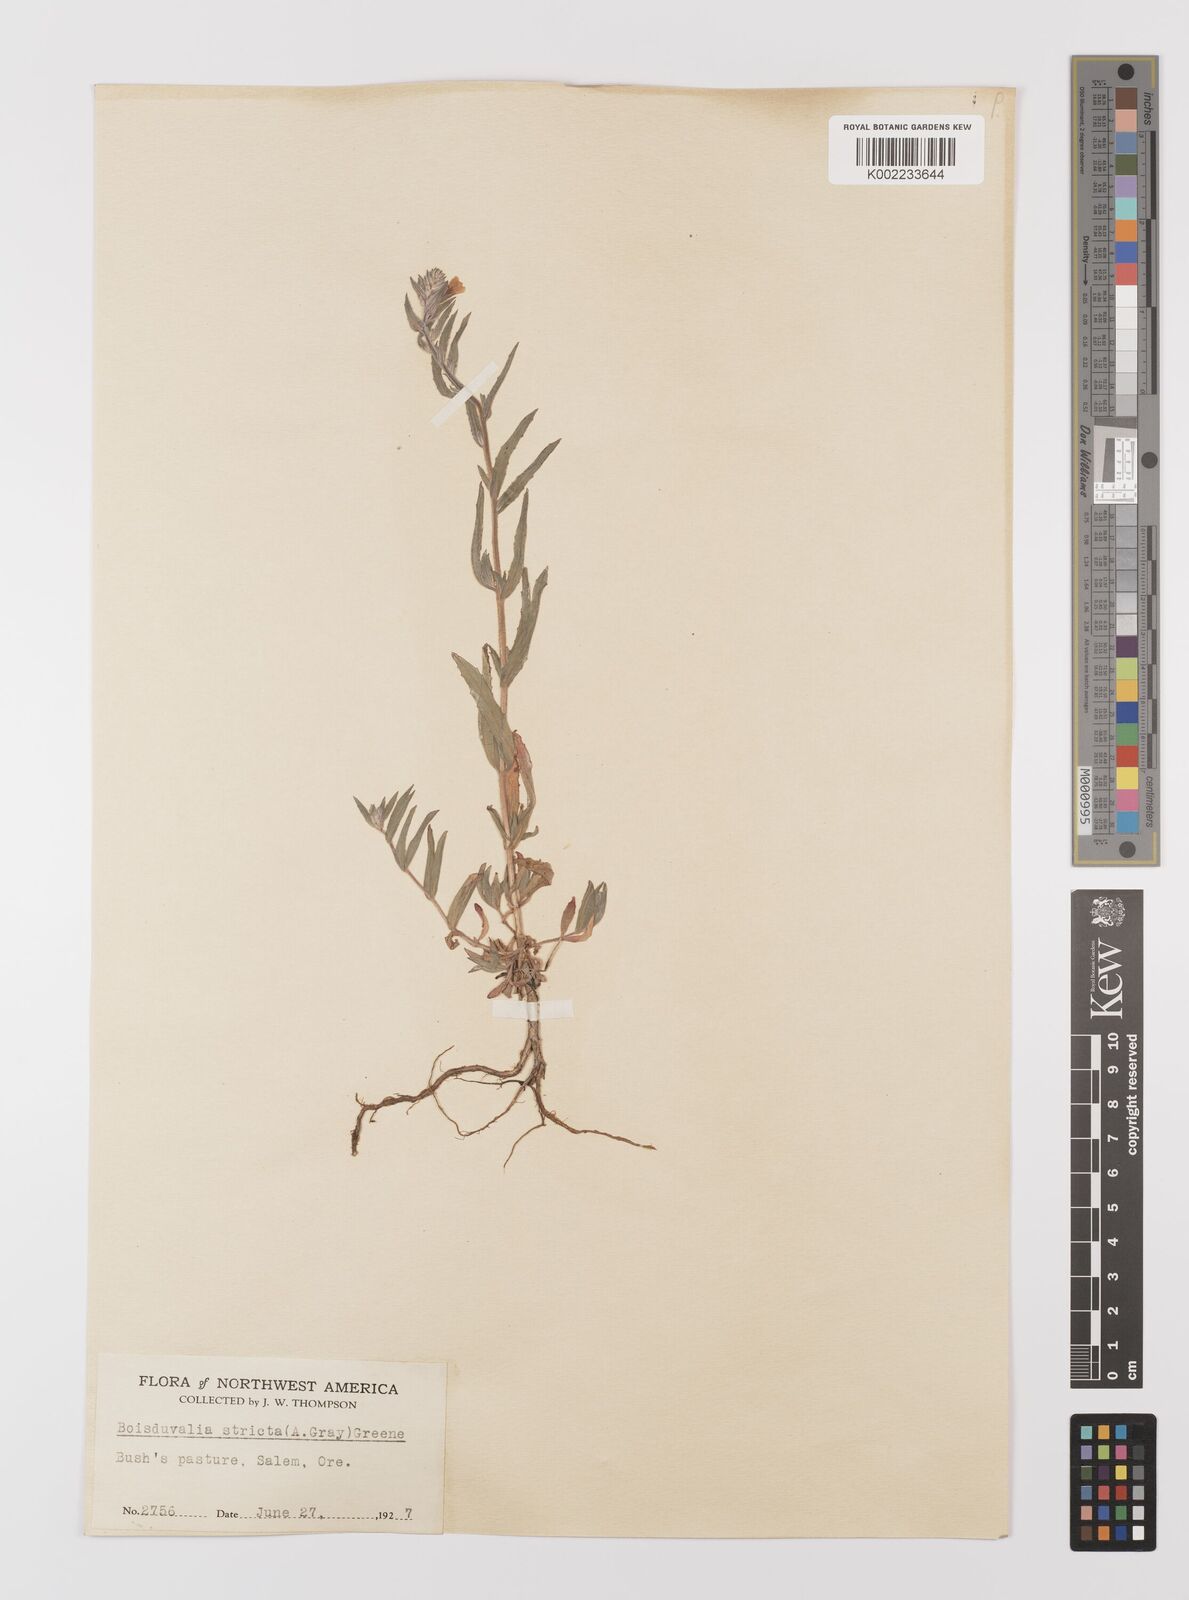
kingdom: Plantae
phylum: Tracheophyta
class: Magnoliopsida
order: Myrtales
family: Onagraceae
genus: Epilobium
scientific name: Epilobium densiflorum
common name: Dense spike-primrose
